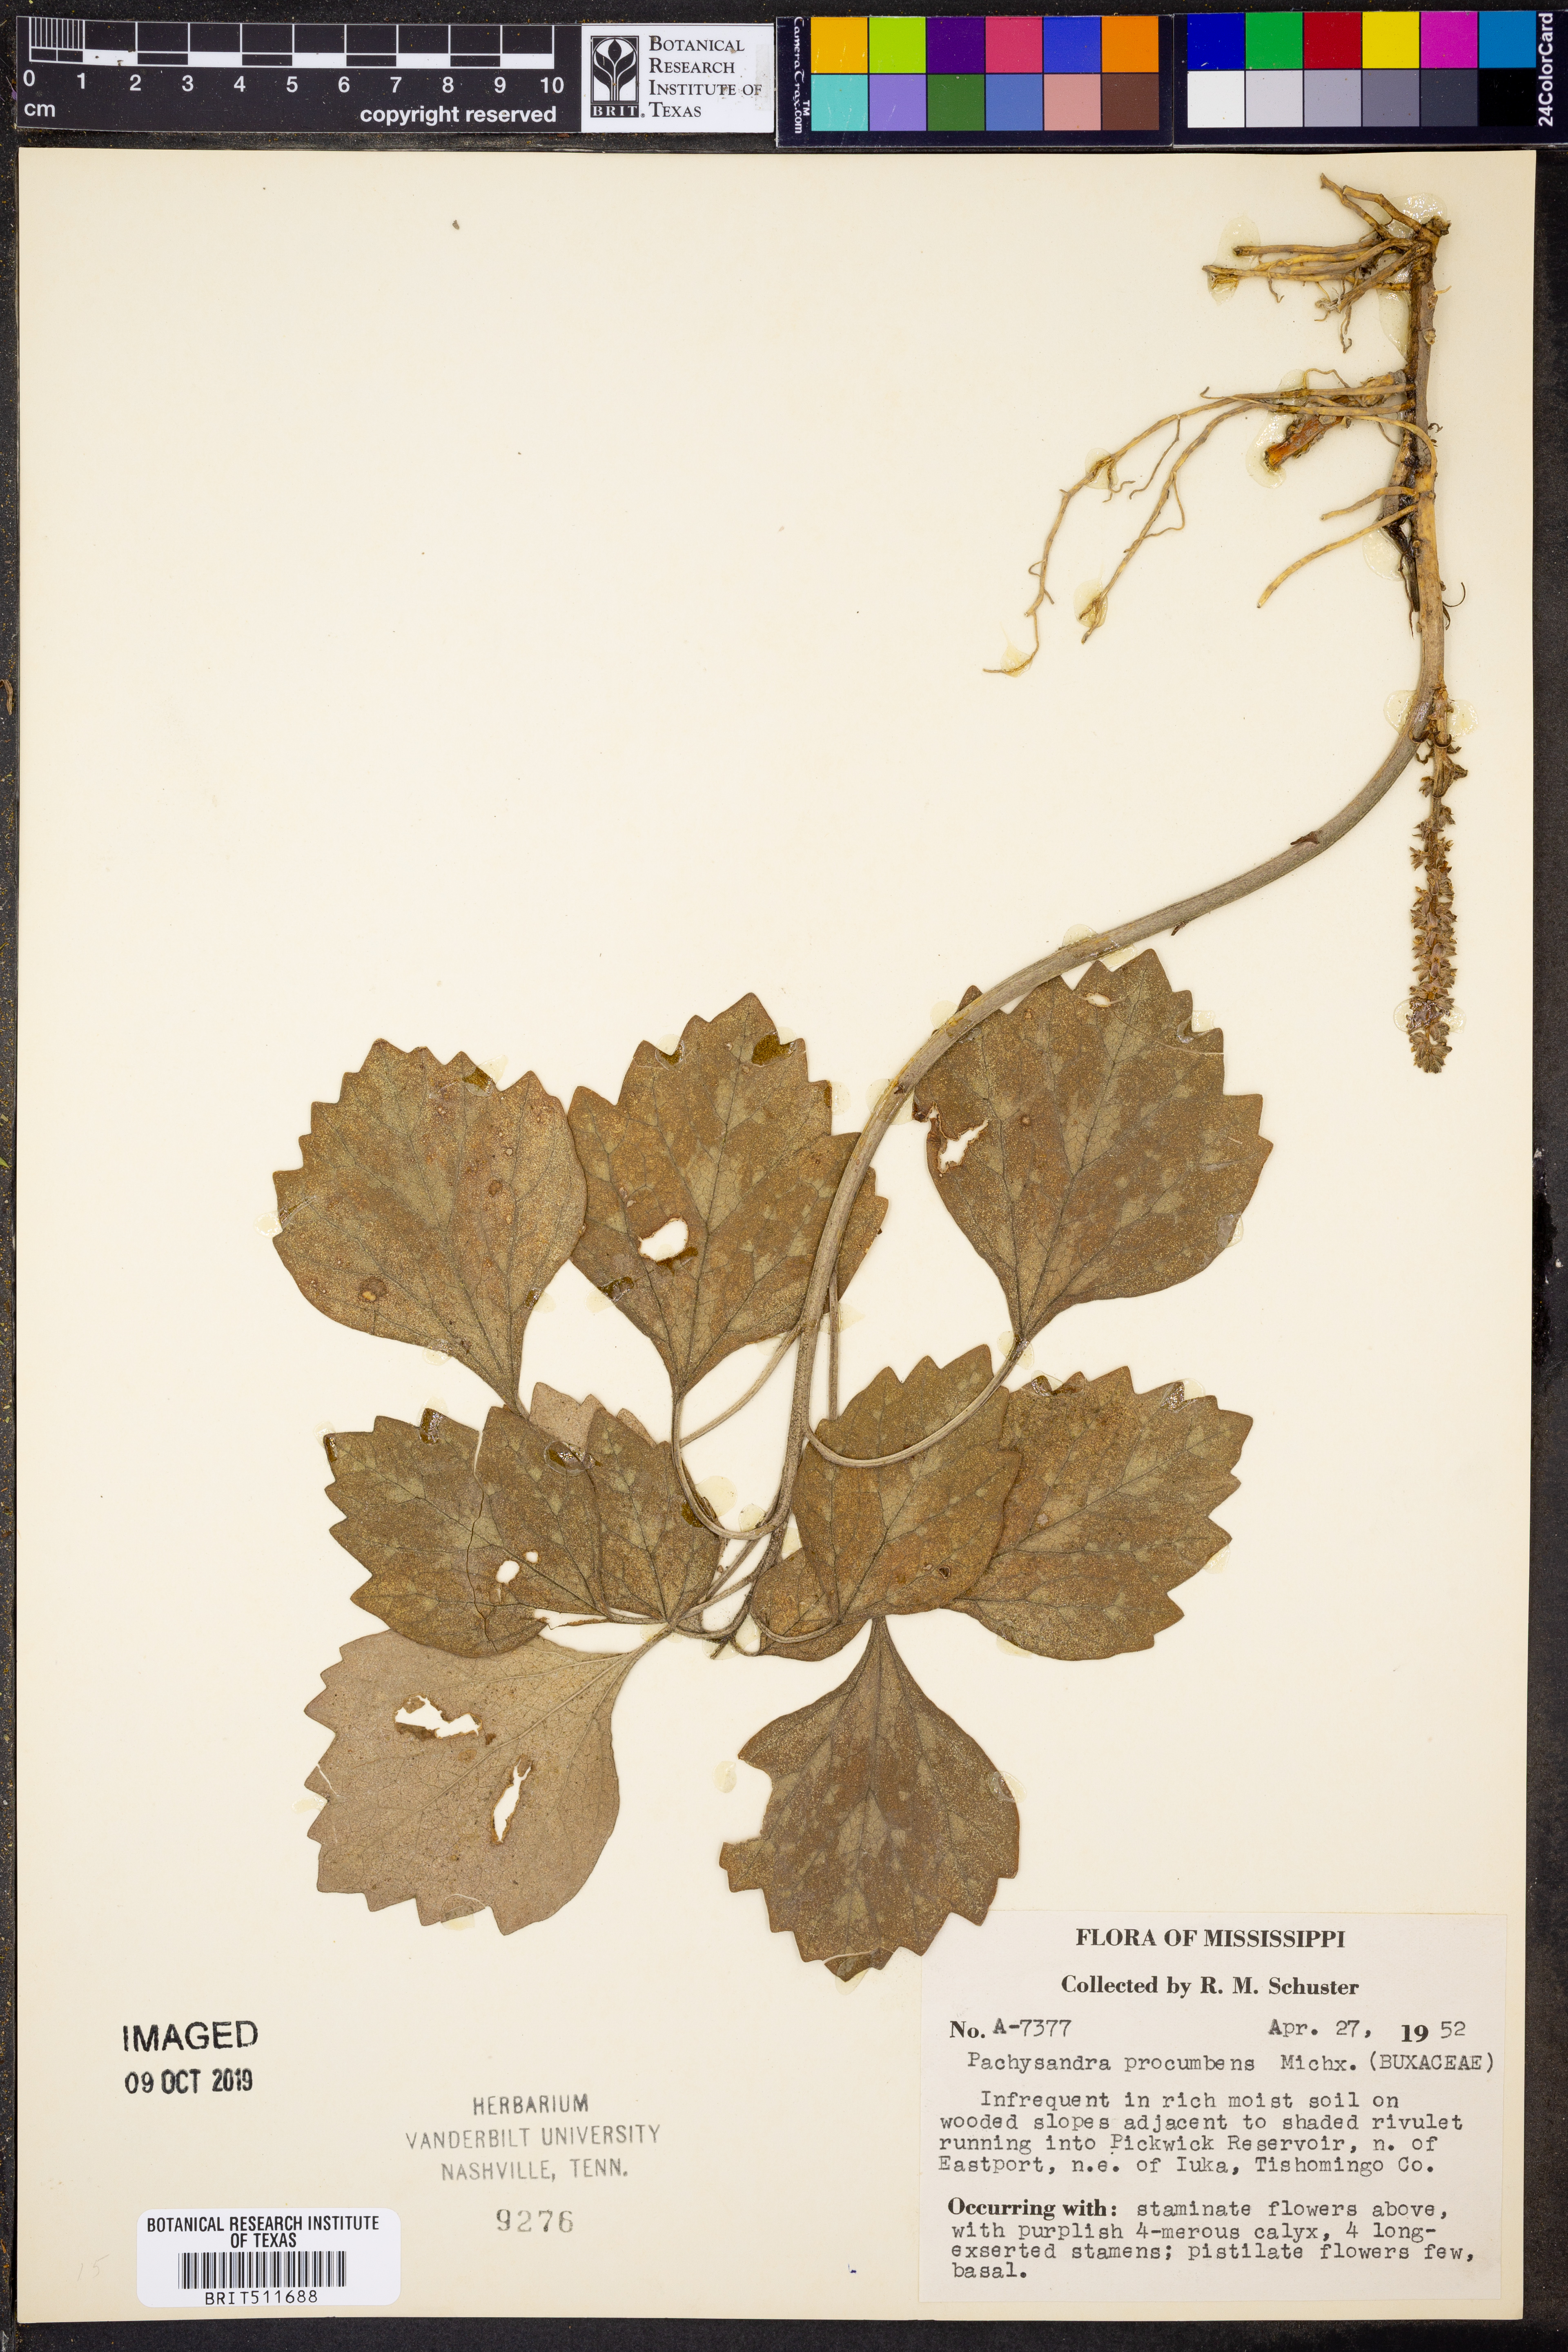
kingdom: Plantae
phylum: Tracheophyta
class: Magnoliopsida
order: Buxales
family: Buxaceae
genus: Pachysandra
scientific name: Pachysandra procumbens
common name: Mountain-spurge
